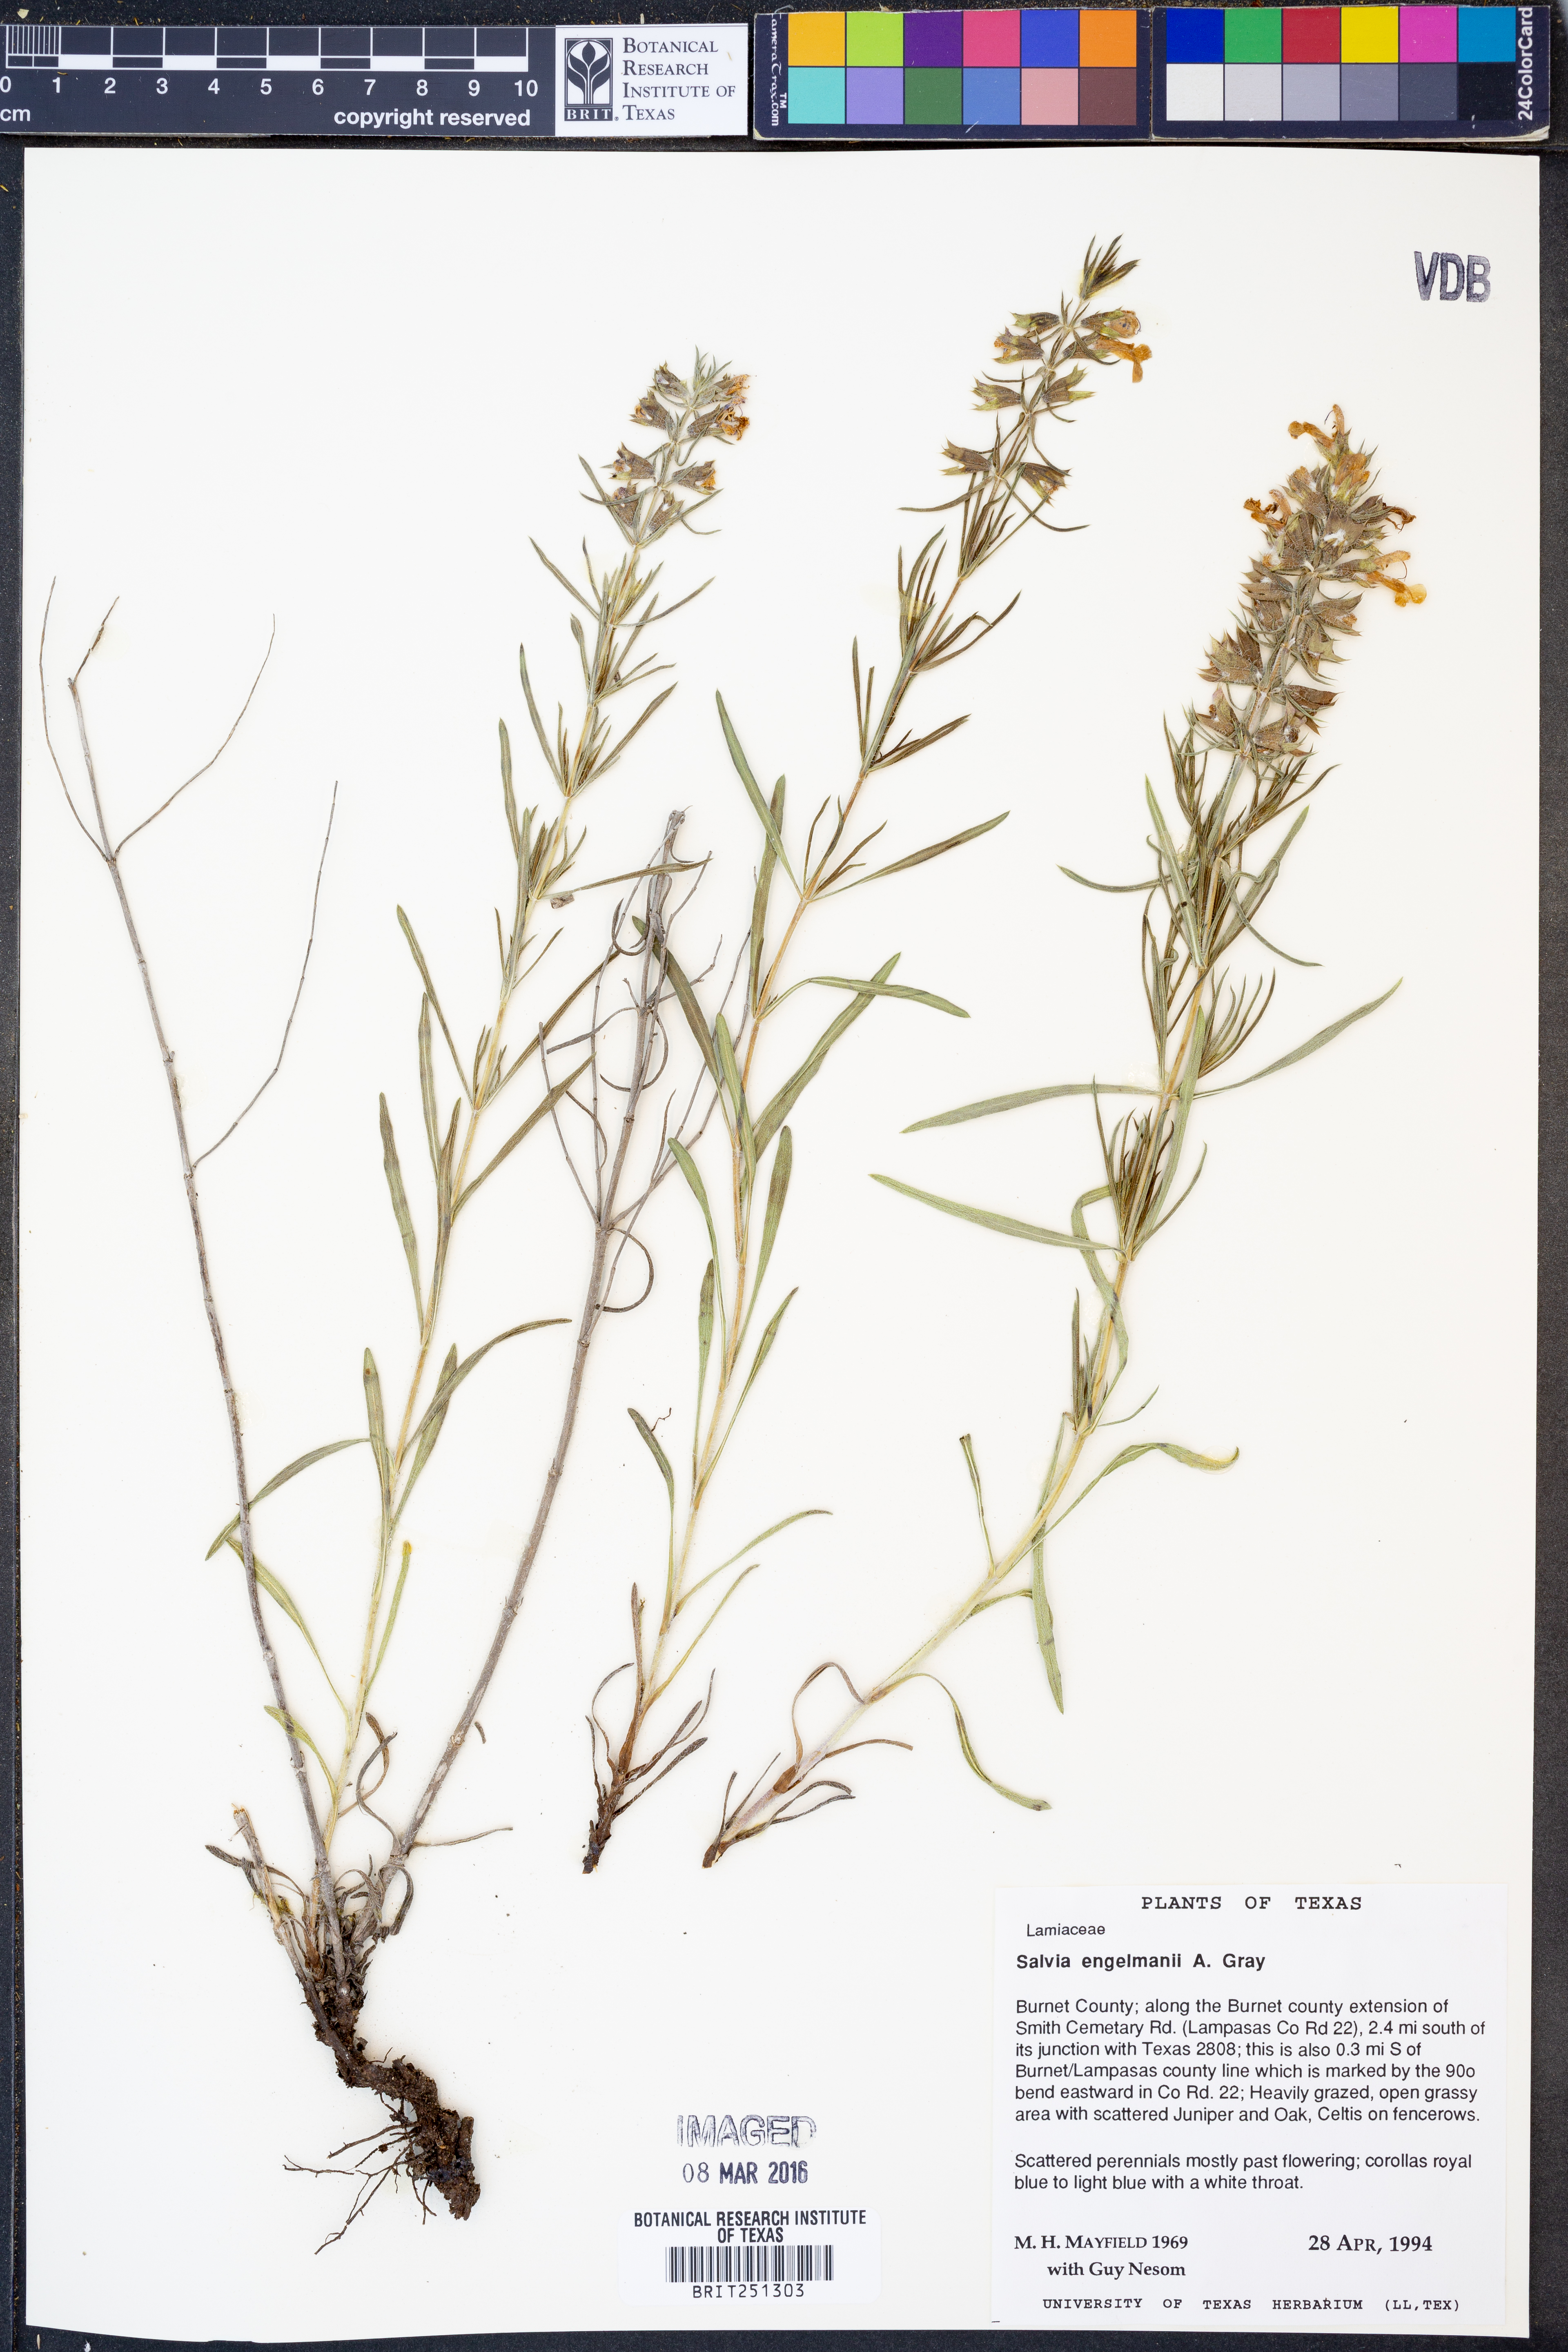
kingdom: Plantae
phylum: Tracheophyta
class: Magnoliopsida
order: Lamiales
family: Lamiaceae
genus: Salvia
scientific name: Salvia engelmannii
